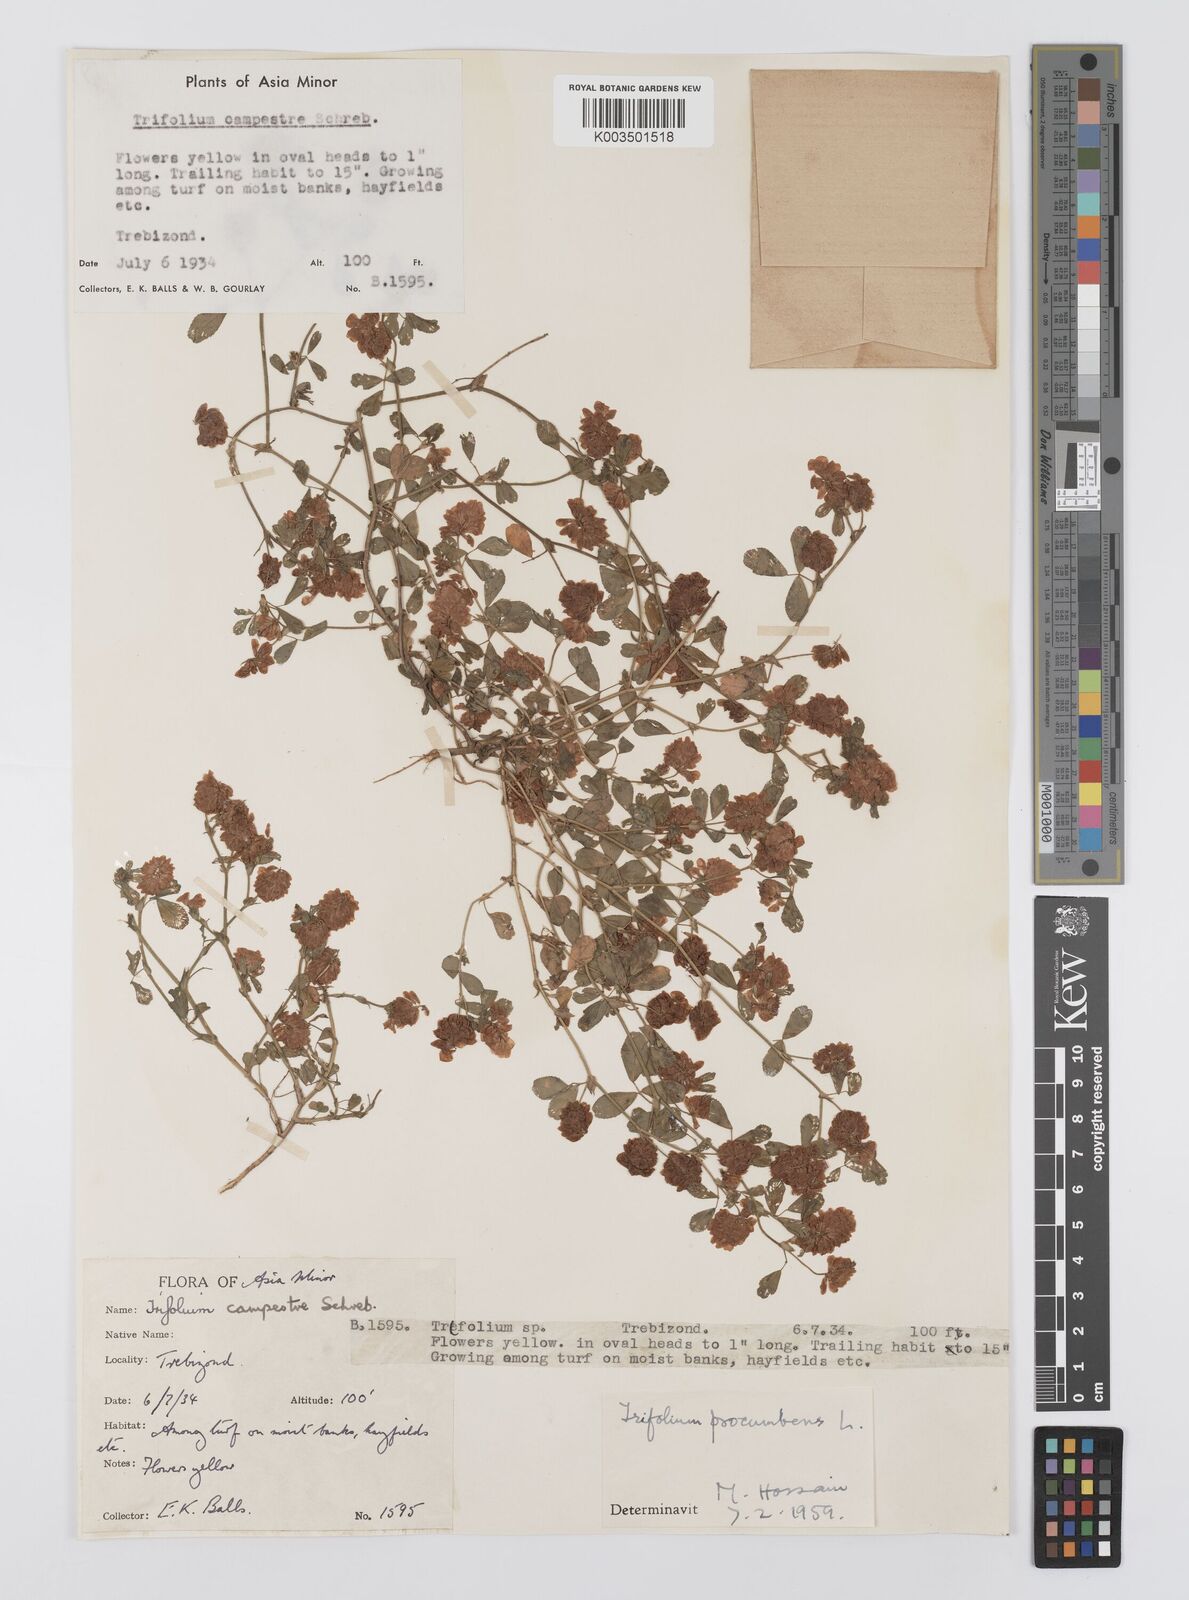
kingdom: Plantae
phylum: Tracheophyta
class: Magnoliopsida
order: Fabales
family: Fabaceae
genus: Trifolium
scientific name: Trifolium campestre
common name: Field clover
